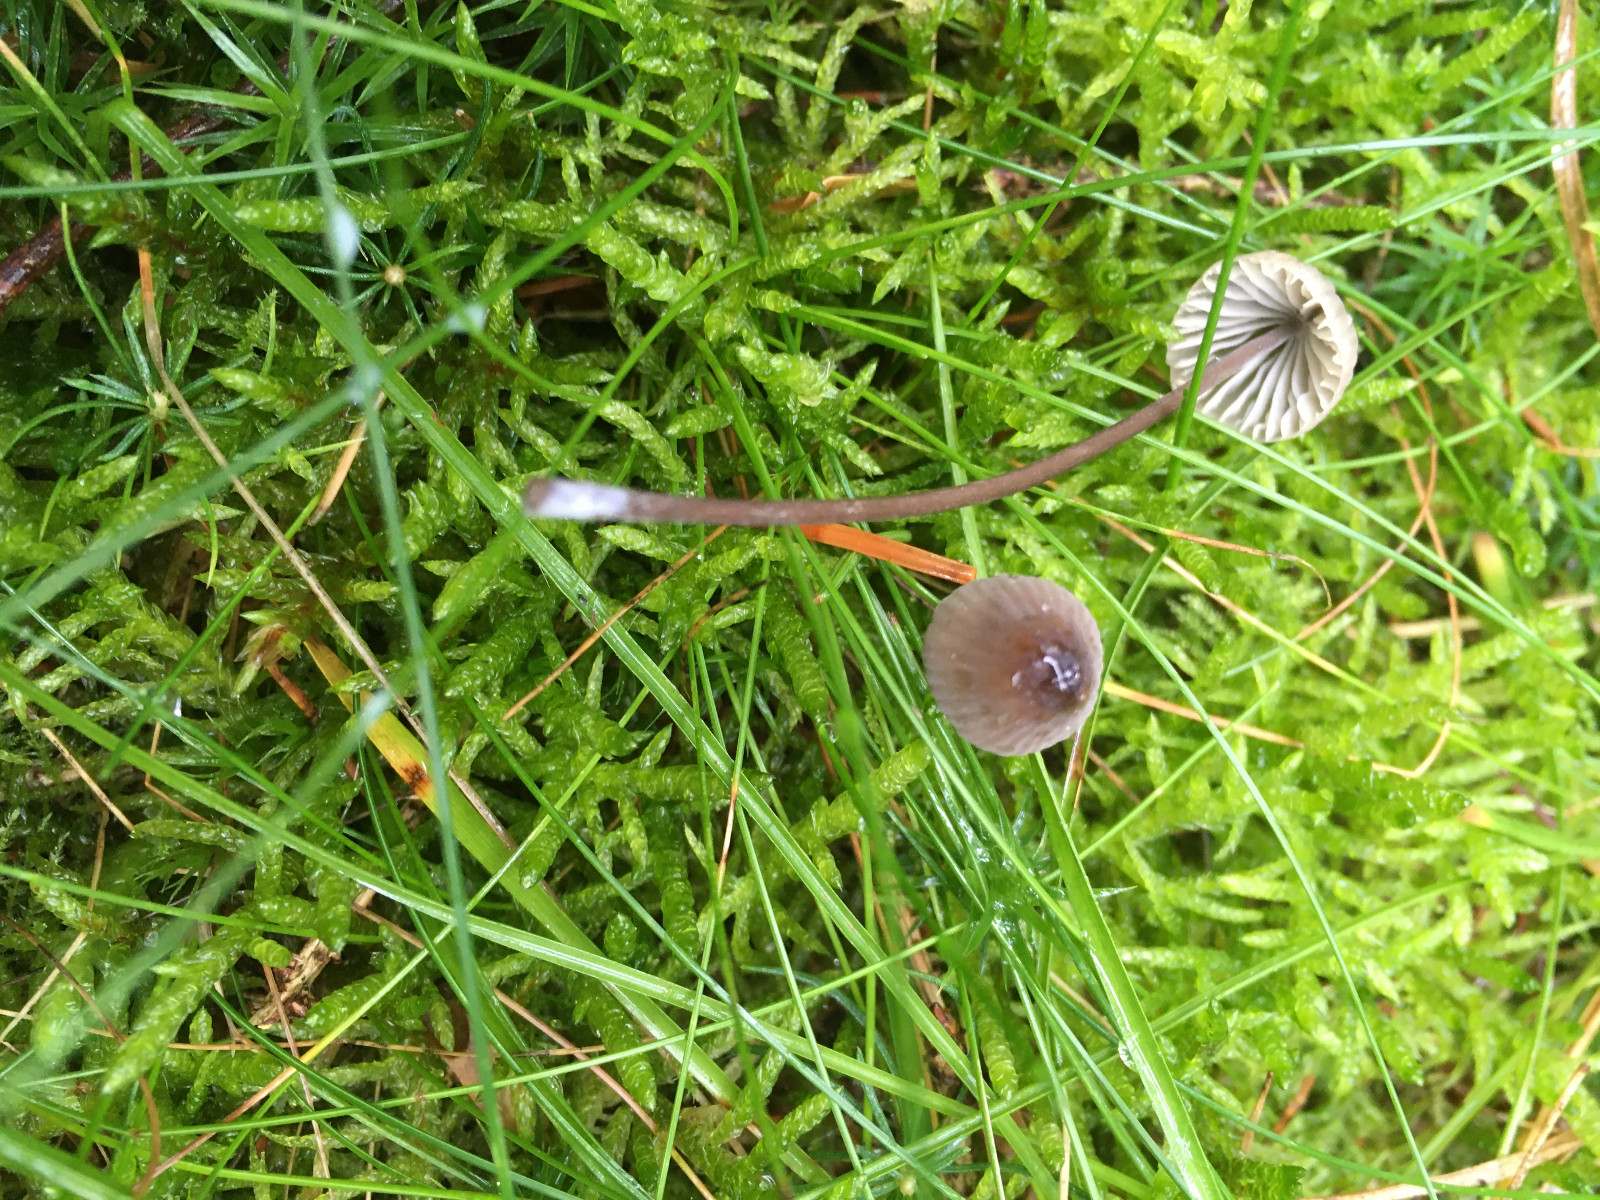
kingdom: Fungi
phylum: Basidiomycota
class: Agaricomycetes
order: Agaricales
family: Mycenaceae
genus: Mycena
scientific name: Mycena galopus
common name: hvidmælket huesvamp
